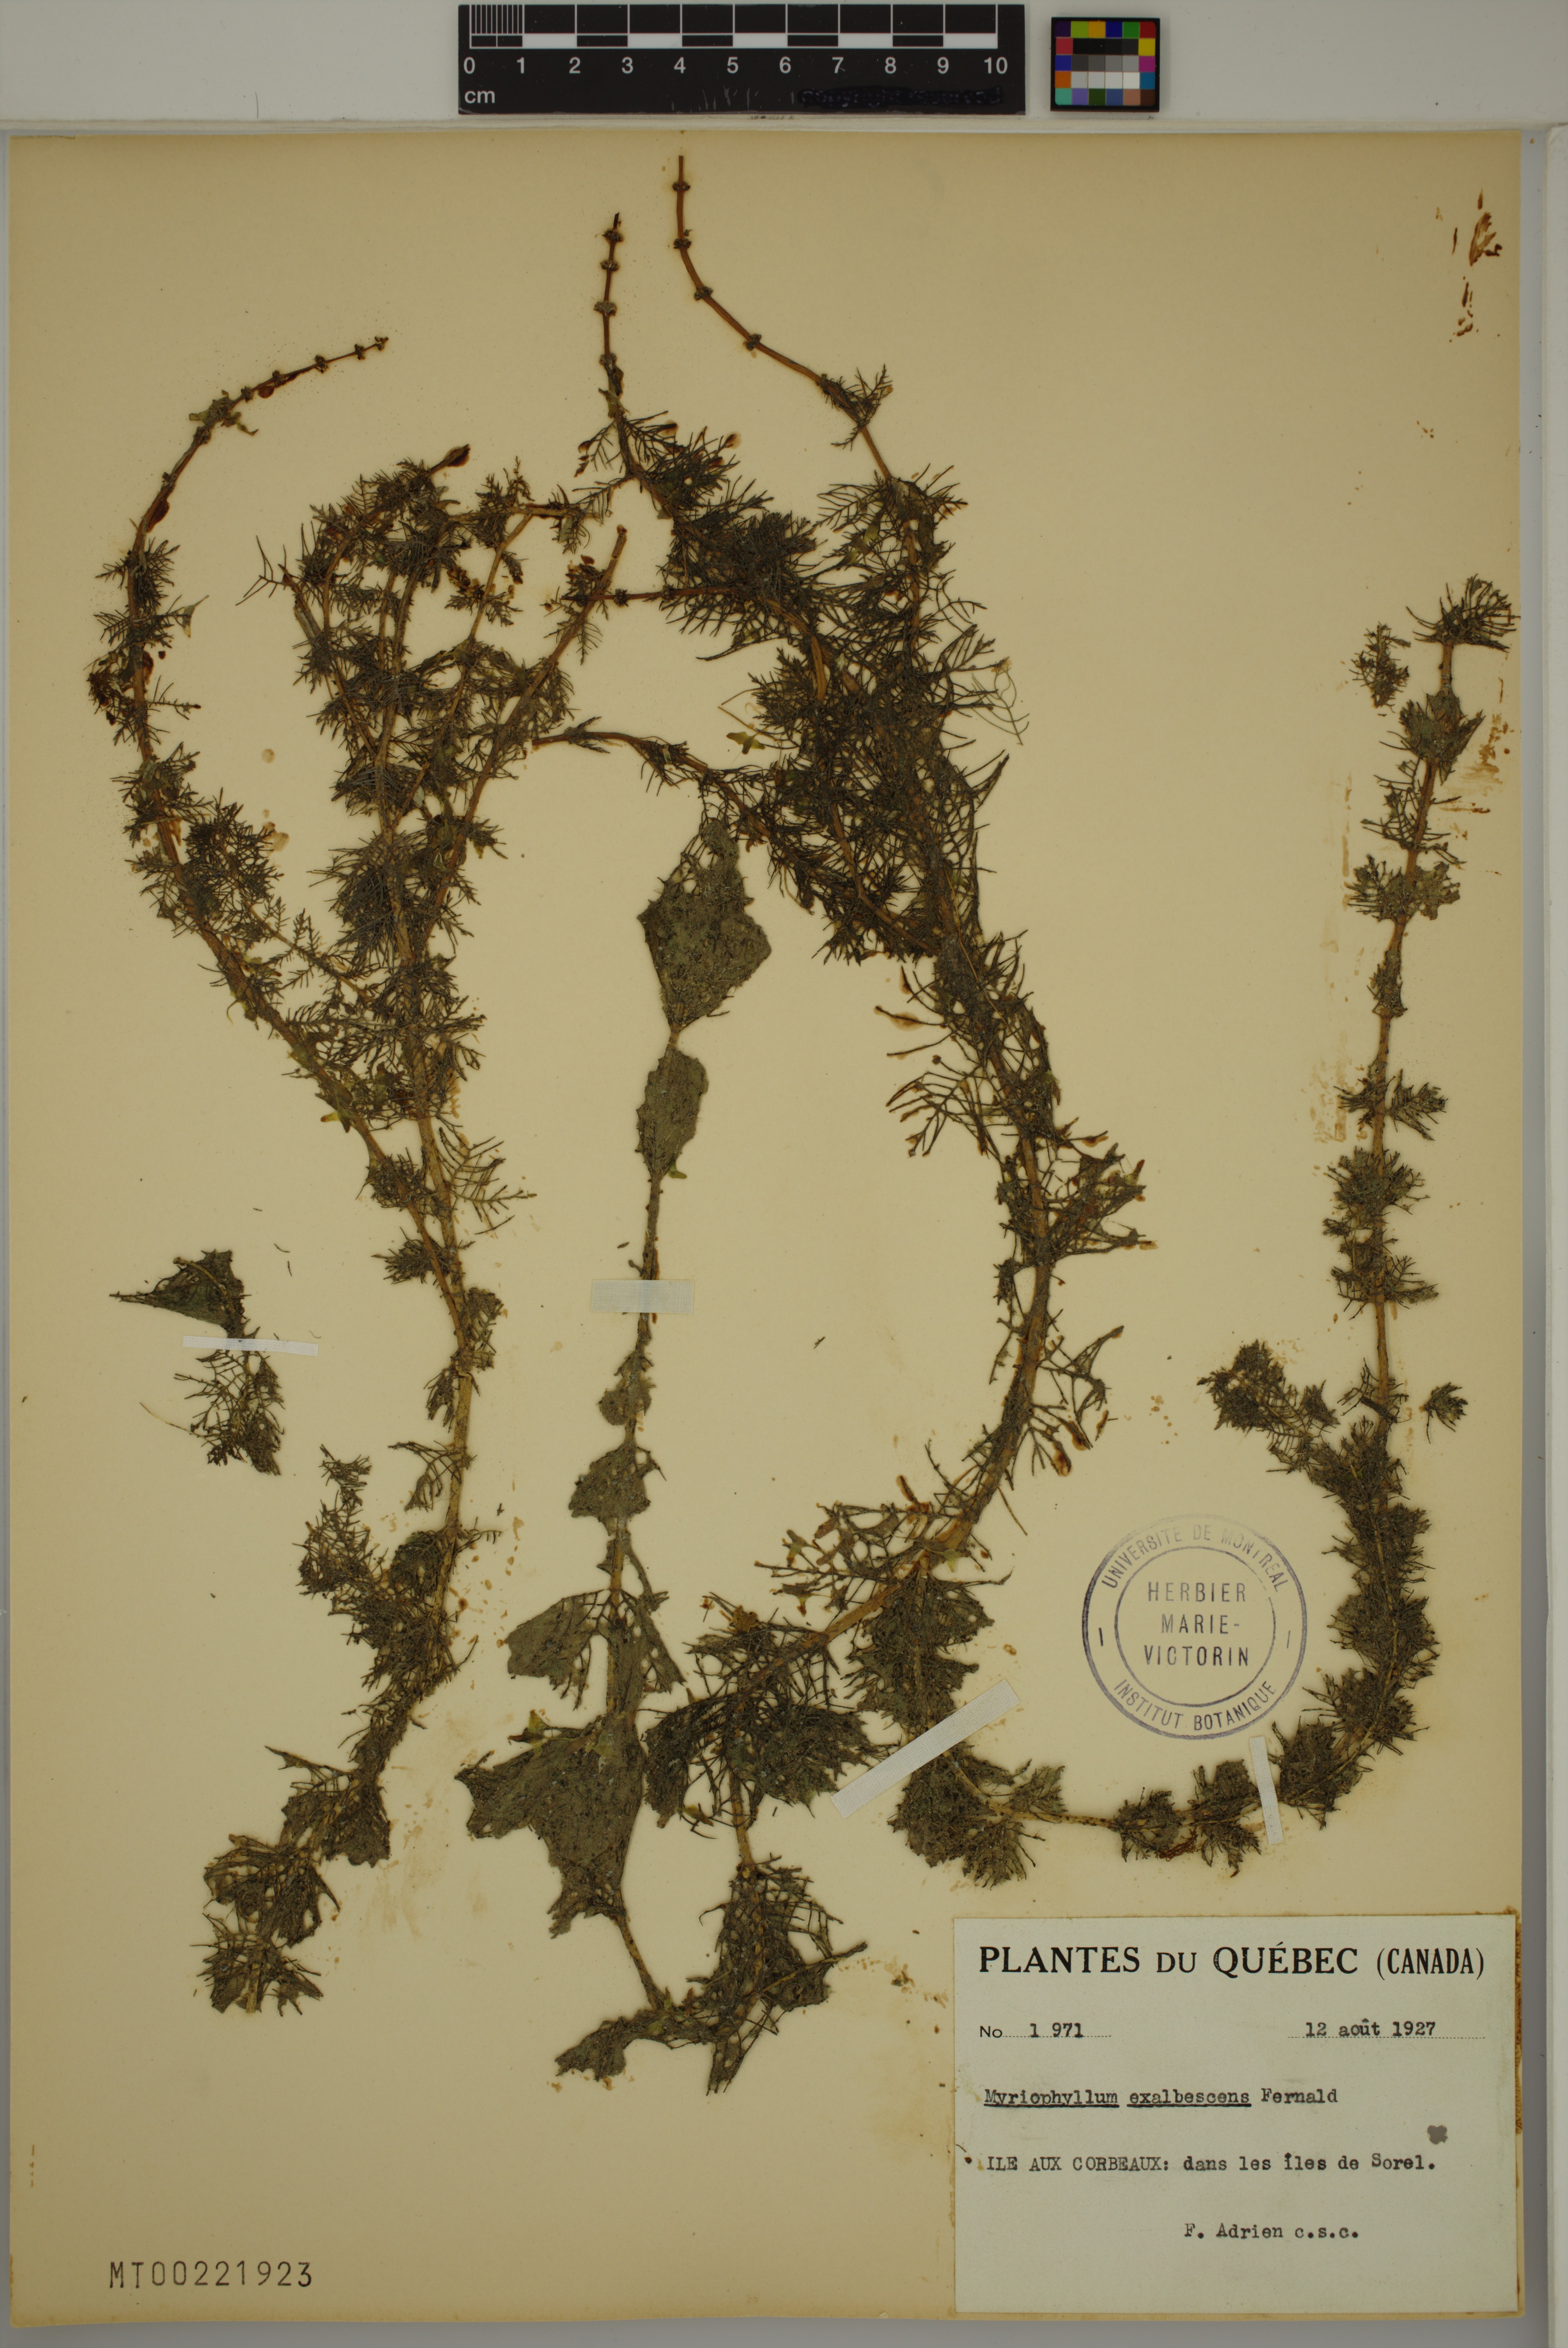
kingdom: Plantae
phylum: Tracheophyta
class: Magnoliopsida
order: Saxifragales
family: Haloragaceae
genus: Myriophyllum
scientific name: Myriophyllum sibiricum
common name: Siberian water-milfoil
